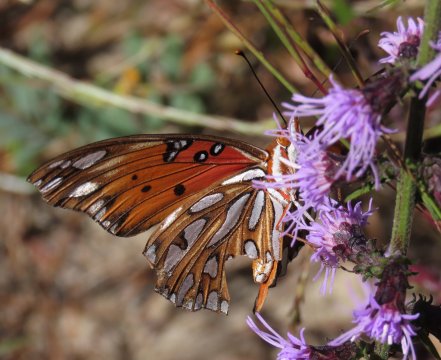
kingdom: Animalia
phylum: Arthropoda
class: Insecta
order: Lepidoptera
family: Nymphalidae
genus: Dione
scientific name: Dione vanillae
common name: Gulf Fritillary
